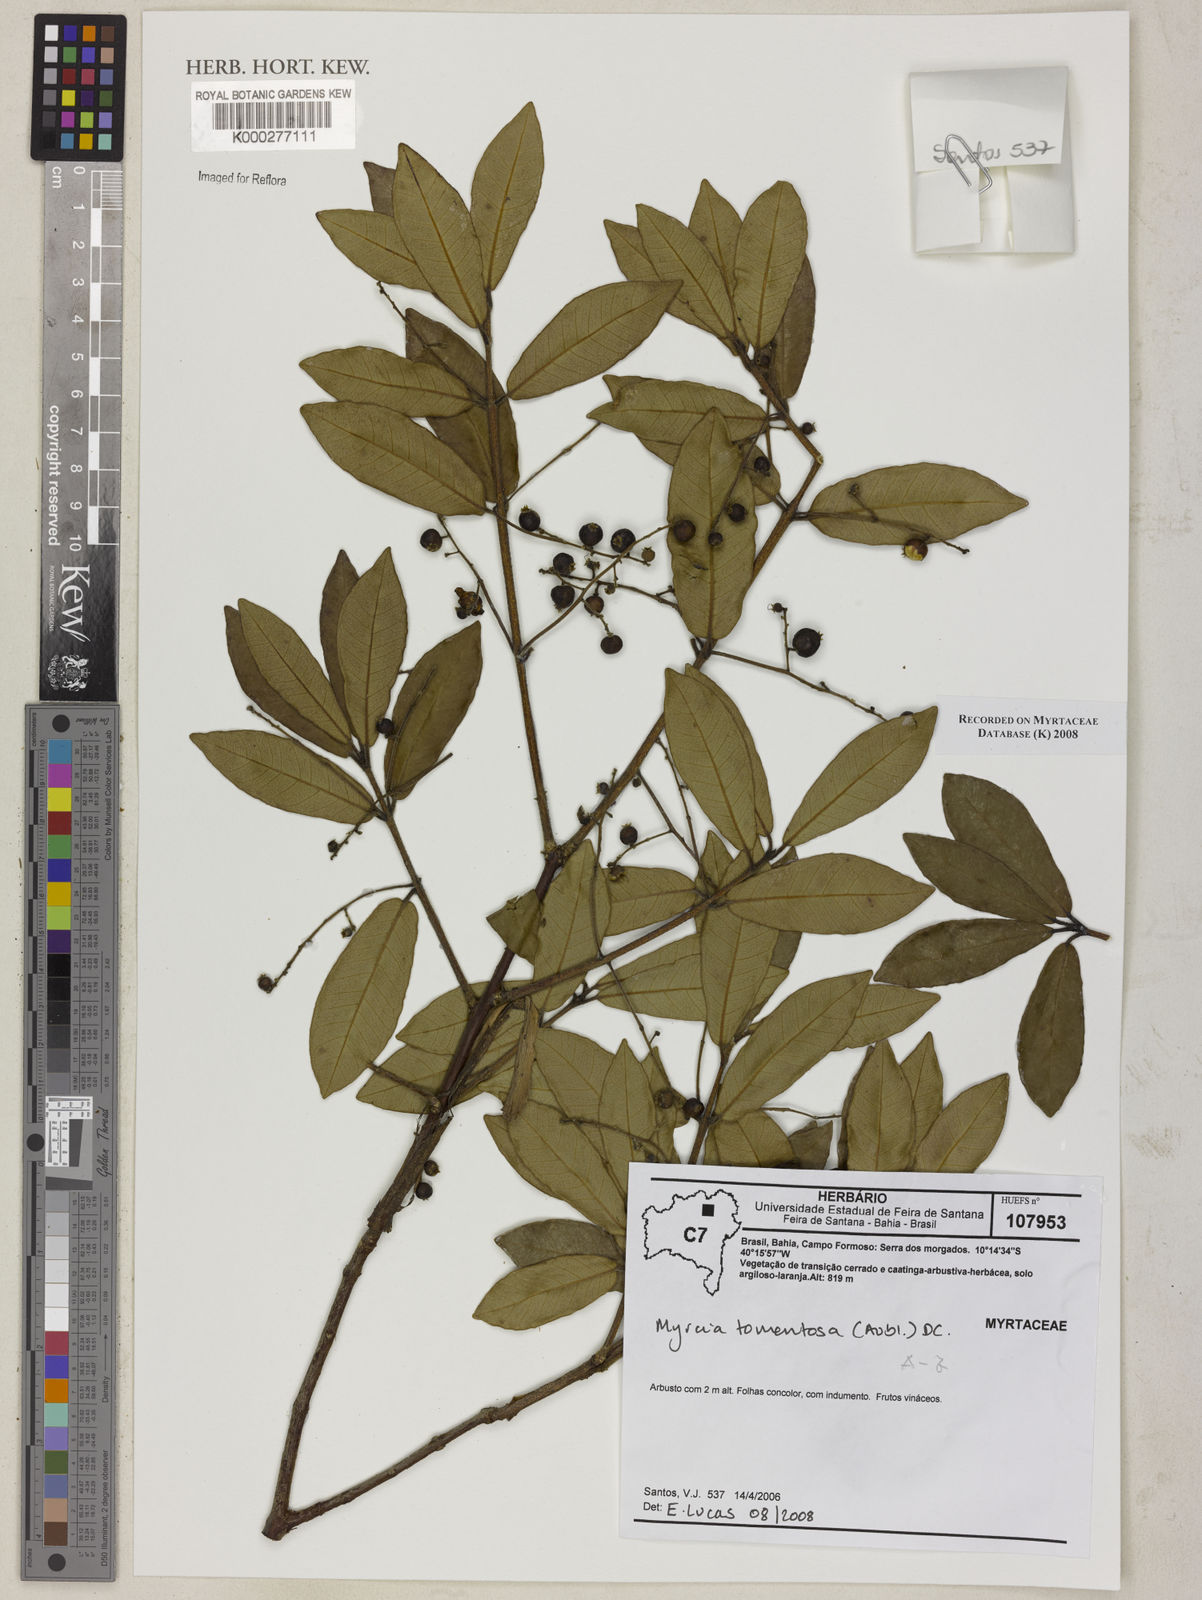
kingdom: Plantae
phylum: Tracheophyta
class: Magnoliopsida
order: Myrtales
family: Myrtaceae
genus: Myrcia
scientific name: Myrcia tomentosa
